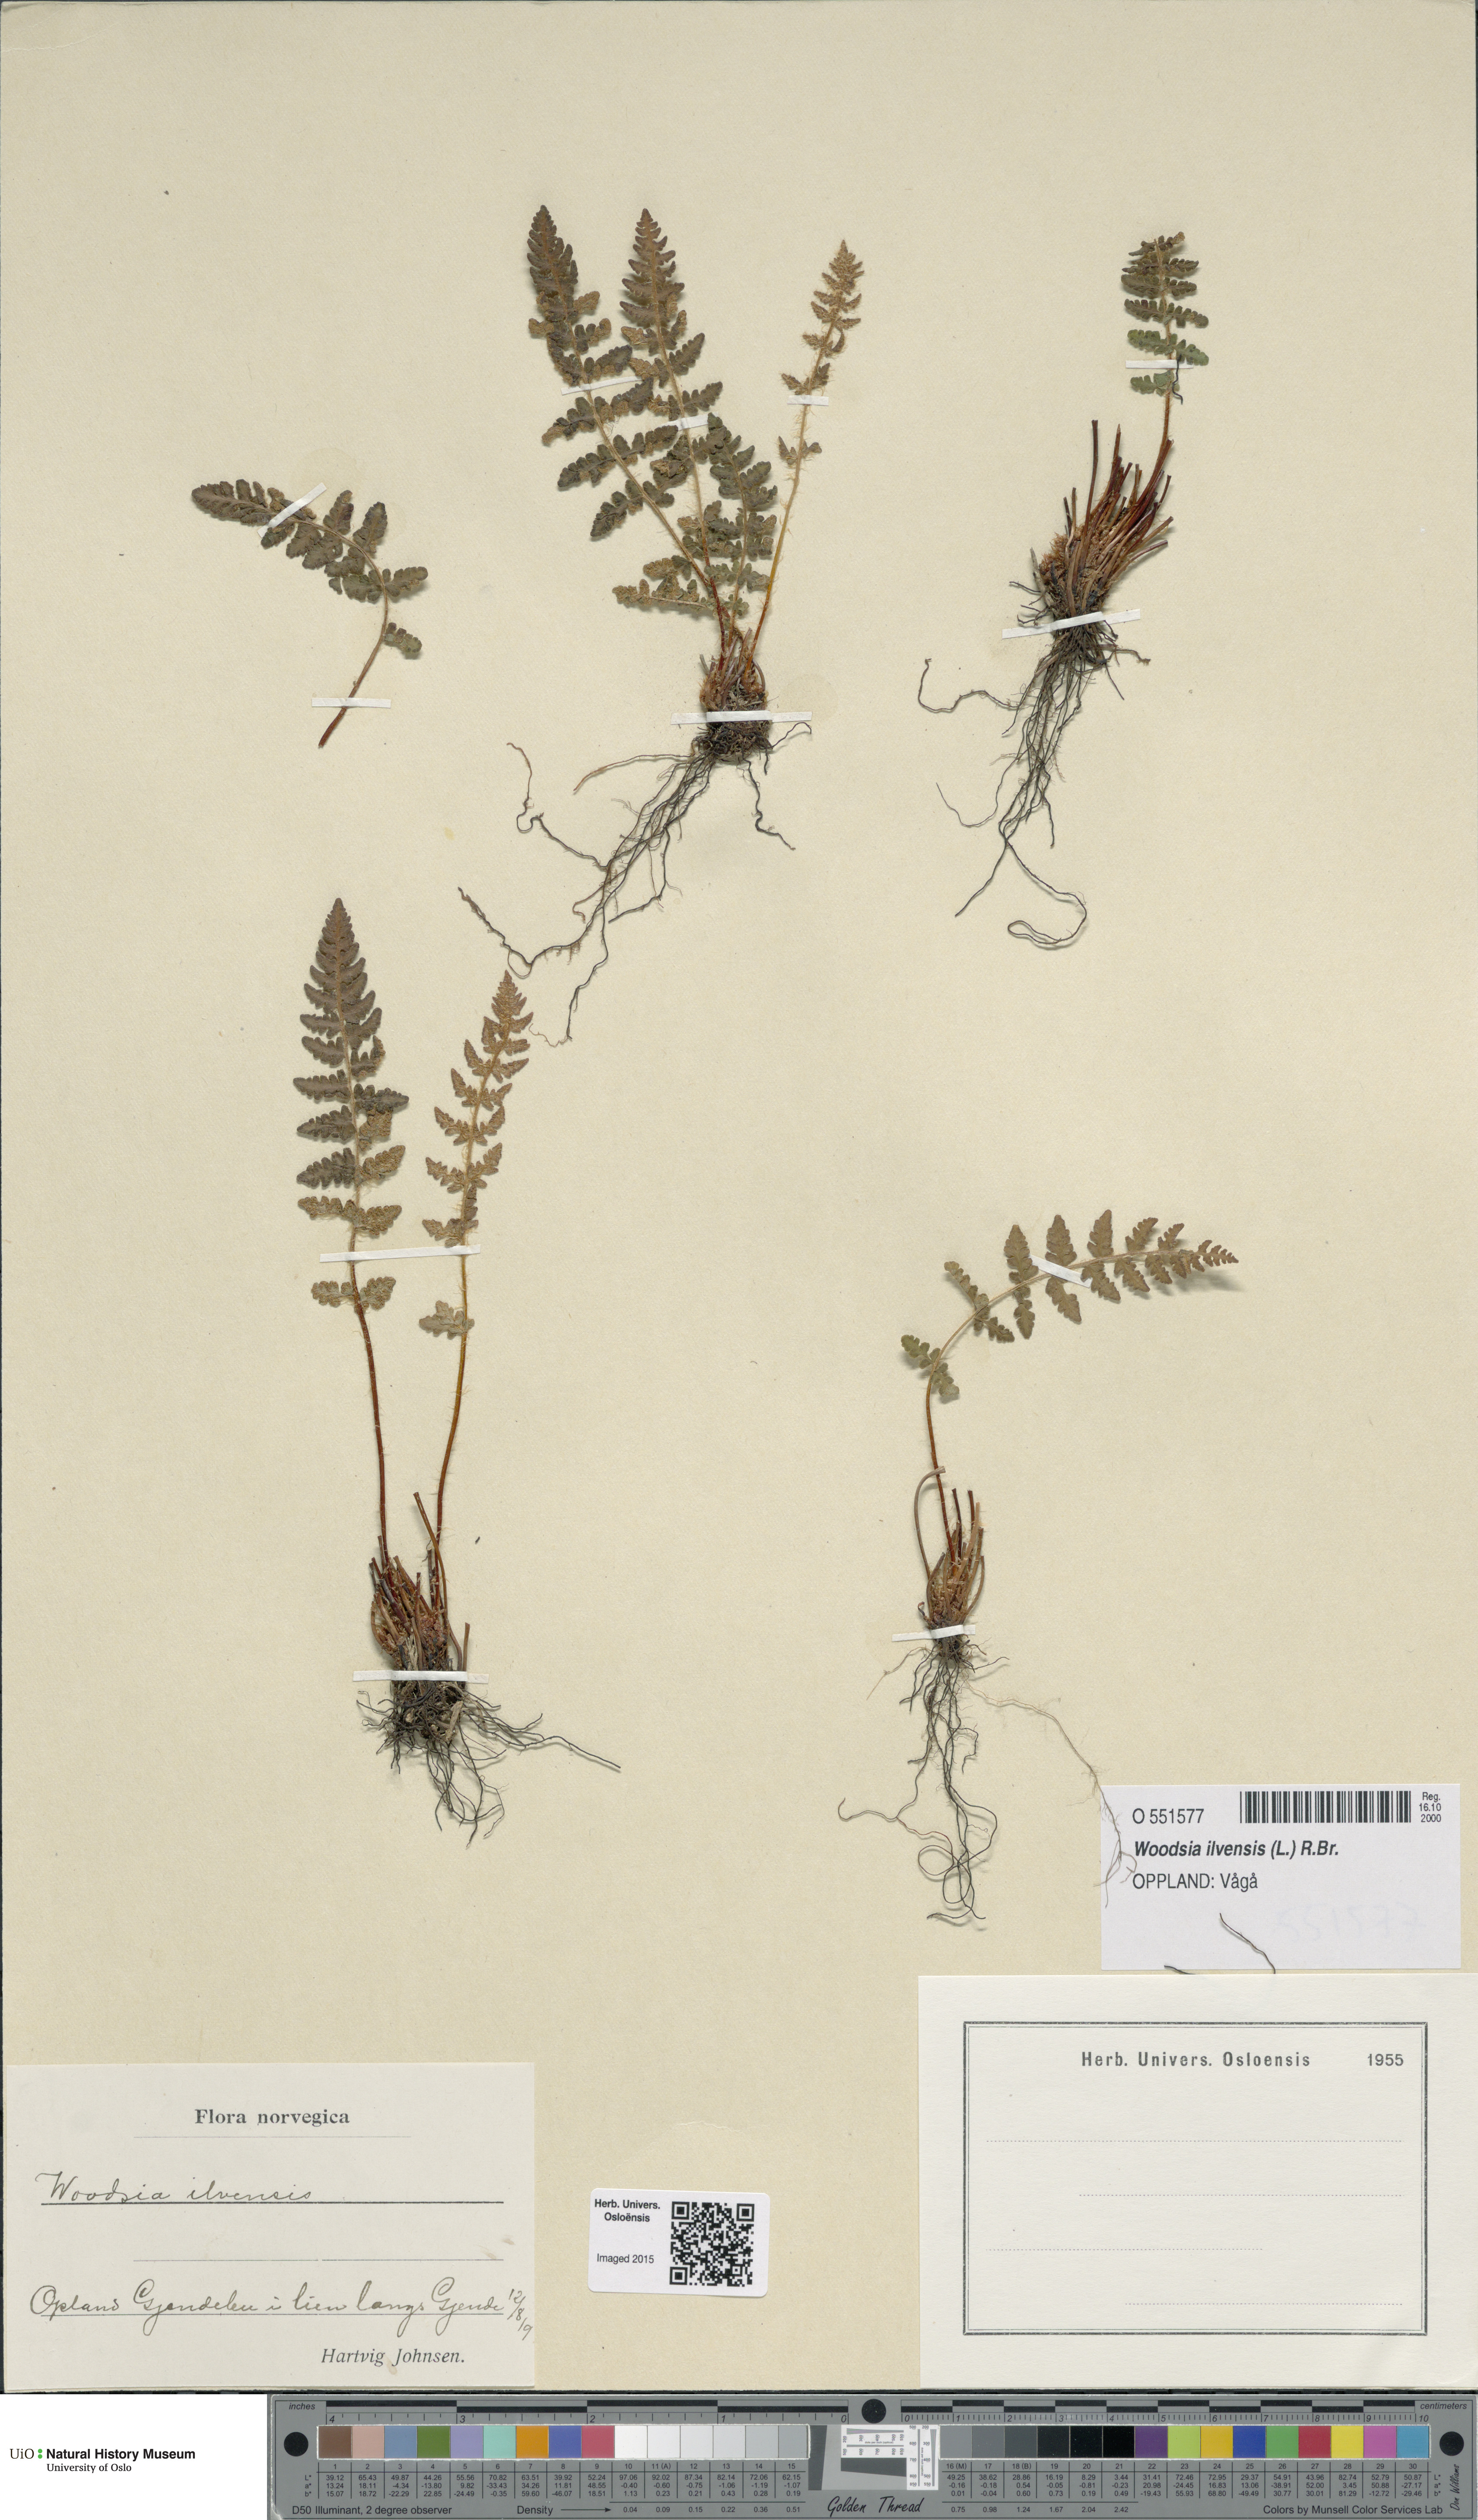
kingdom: Plantae
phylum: Tracheophyta
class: Polypodiopsida
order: Polypodiales
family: Woodsiaceae
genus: Woodsia
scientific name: Woodsia ilvensis
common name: Fragrant woodsia
